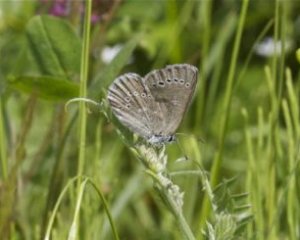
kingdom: Animalia
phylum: Arthropoda
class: Insecta
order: Lepidoptera
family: Lycaenidae
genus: Glaucopsyche
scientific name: Glaucopsyche lygdamus
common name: Silvery Blue
